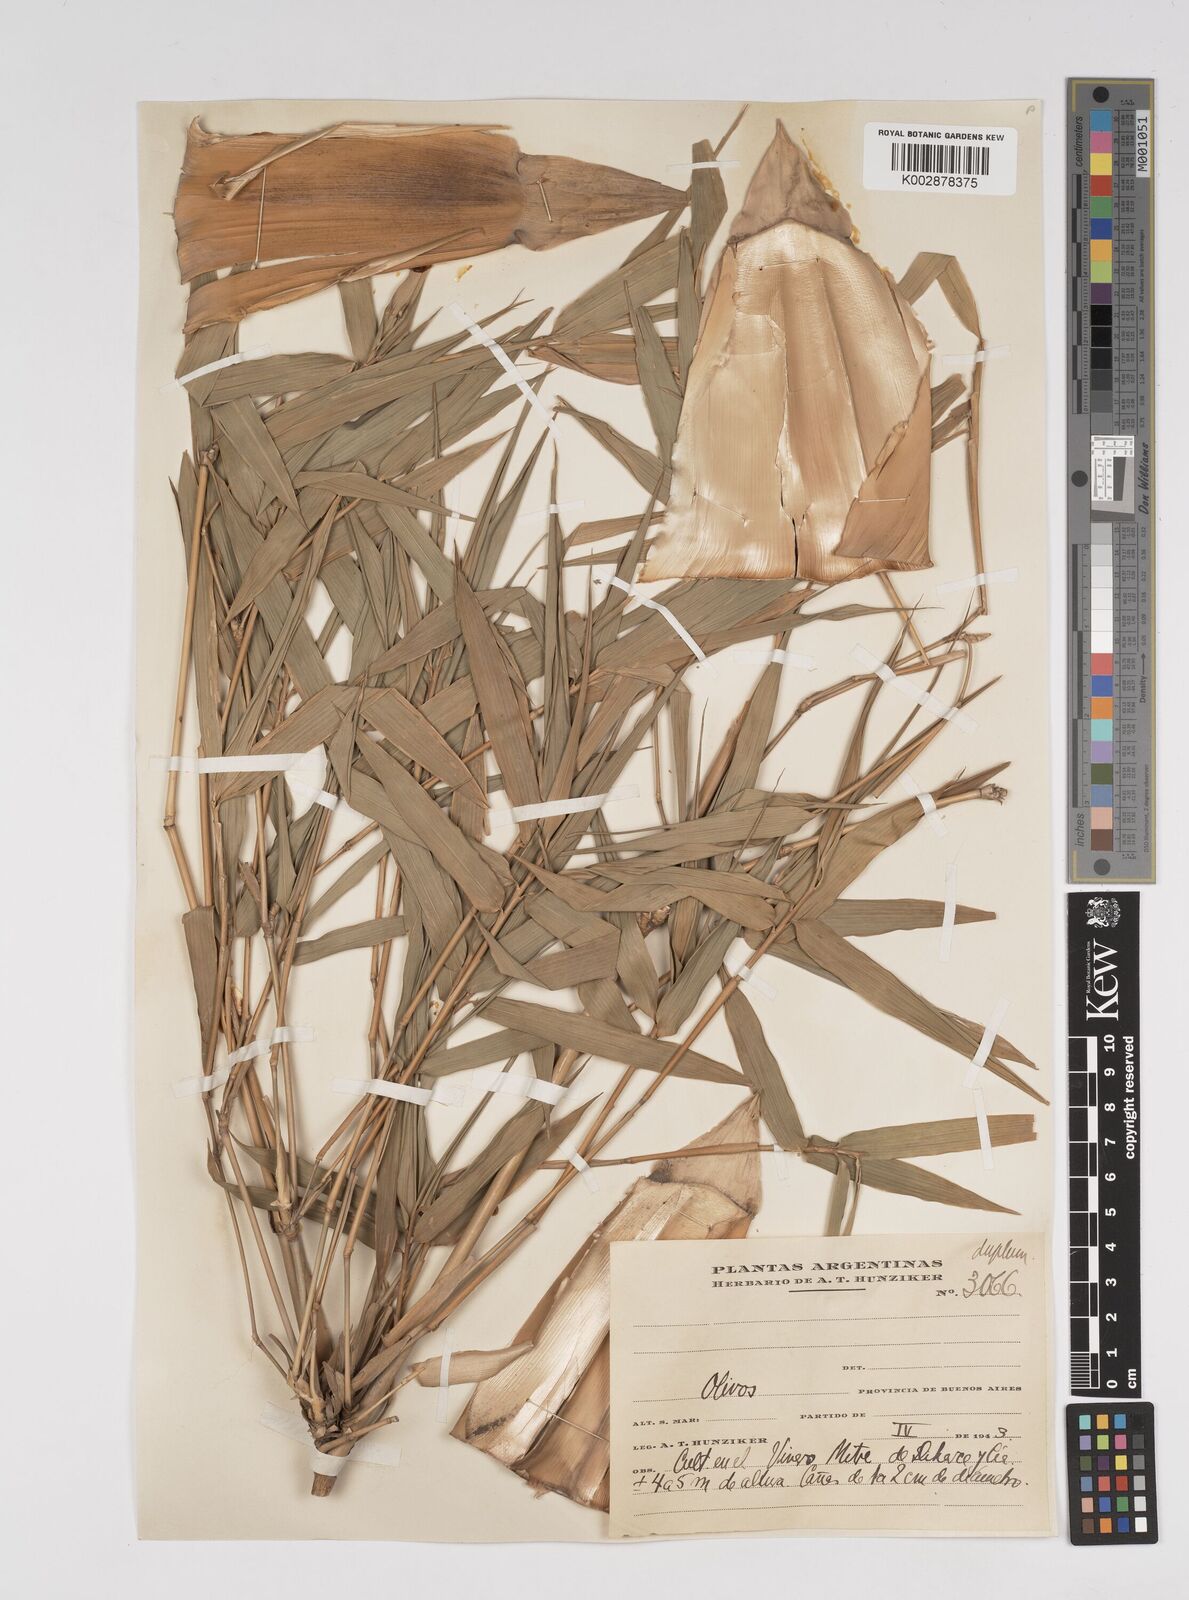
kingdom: Plantae
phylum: Tracheophyta
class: Liliopsida
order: Poales
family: Poaceae
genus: Bambusa
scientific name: Bambusa multiplex
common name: Hedge bamboo
